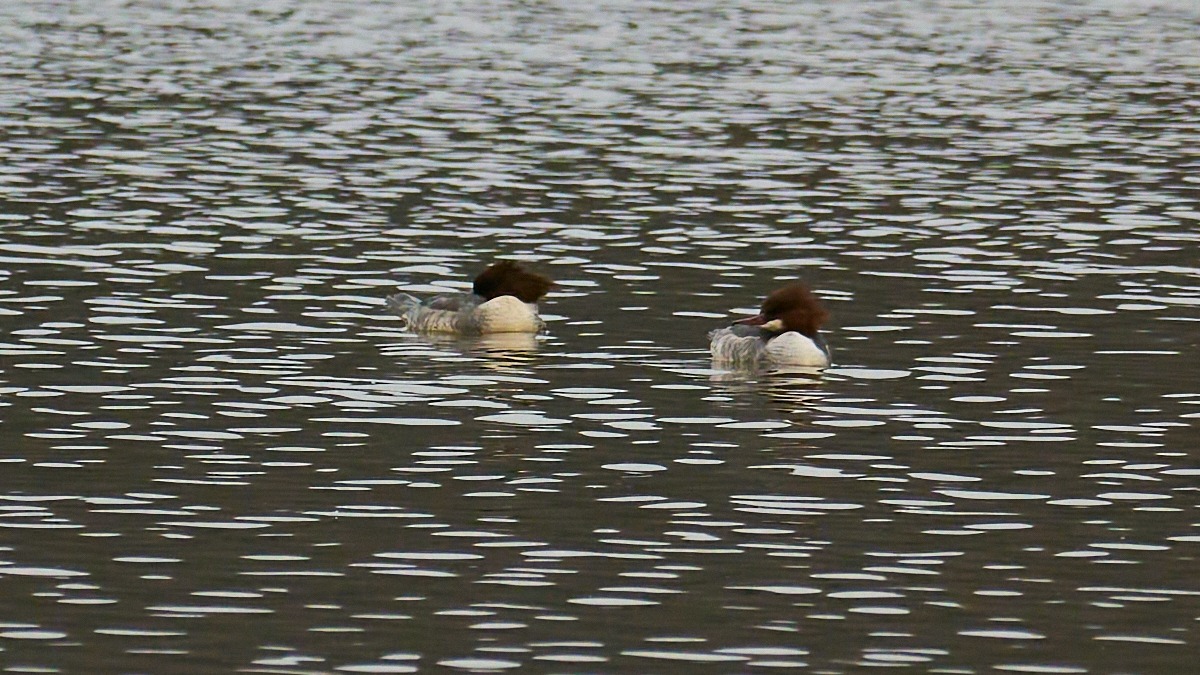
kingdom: Animalia
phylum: Chordata
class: Aves
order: Anseriformes
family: Anatidae
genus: Mergus
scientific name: Mergus merganser
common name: Stor skallesluger
